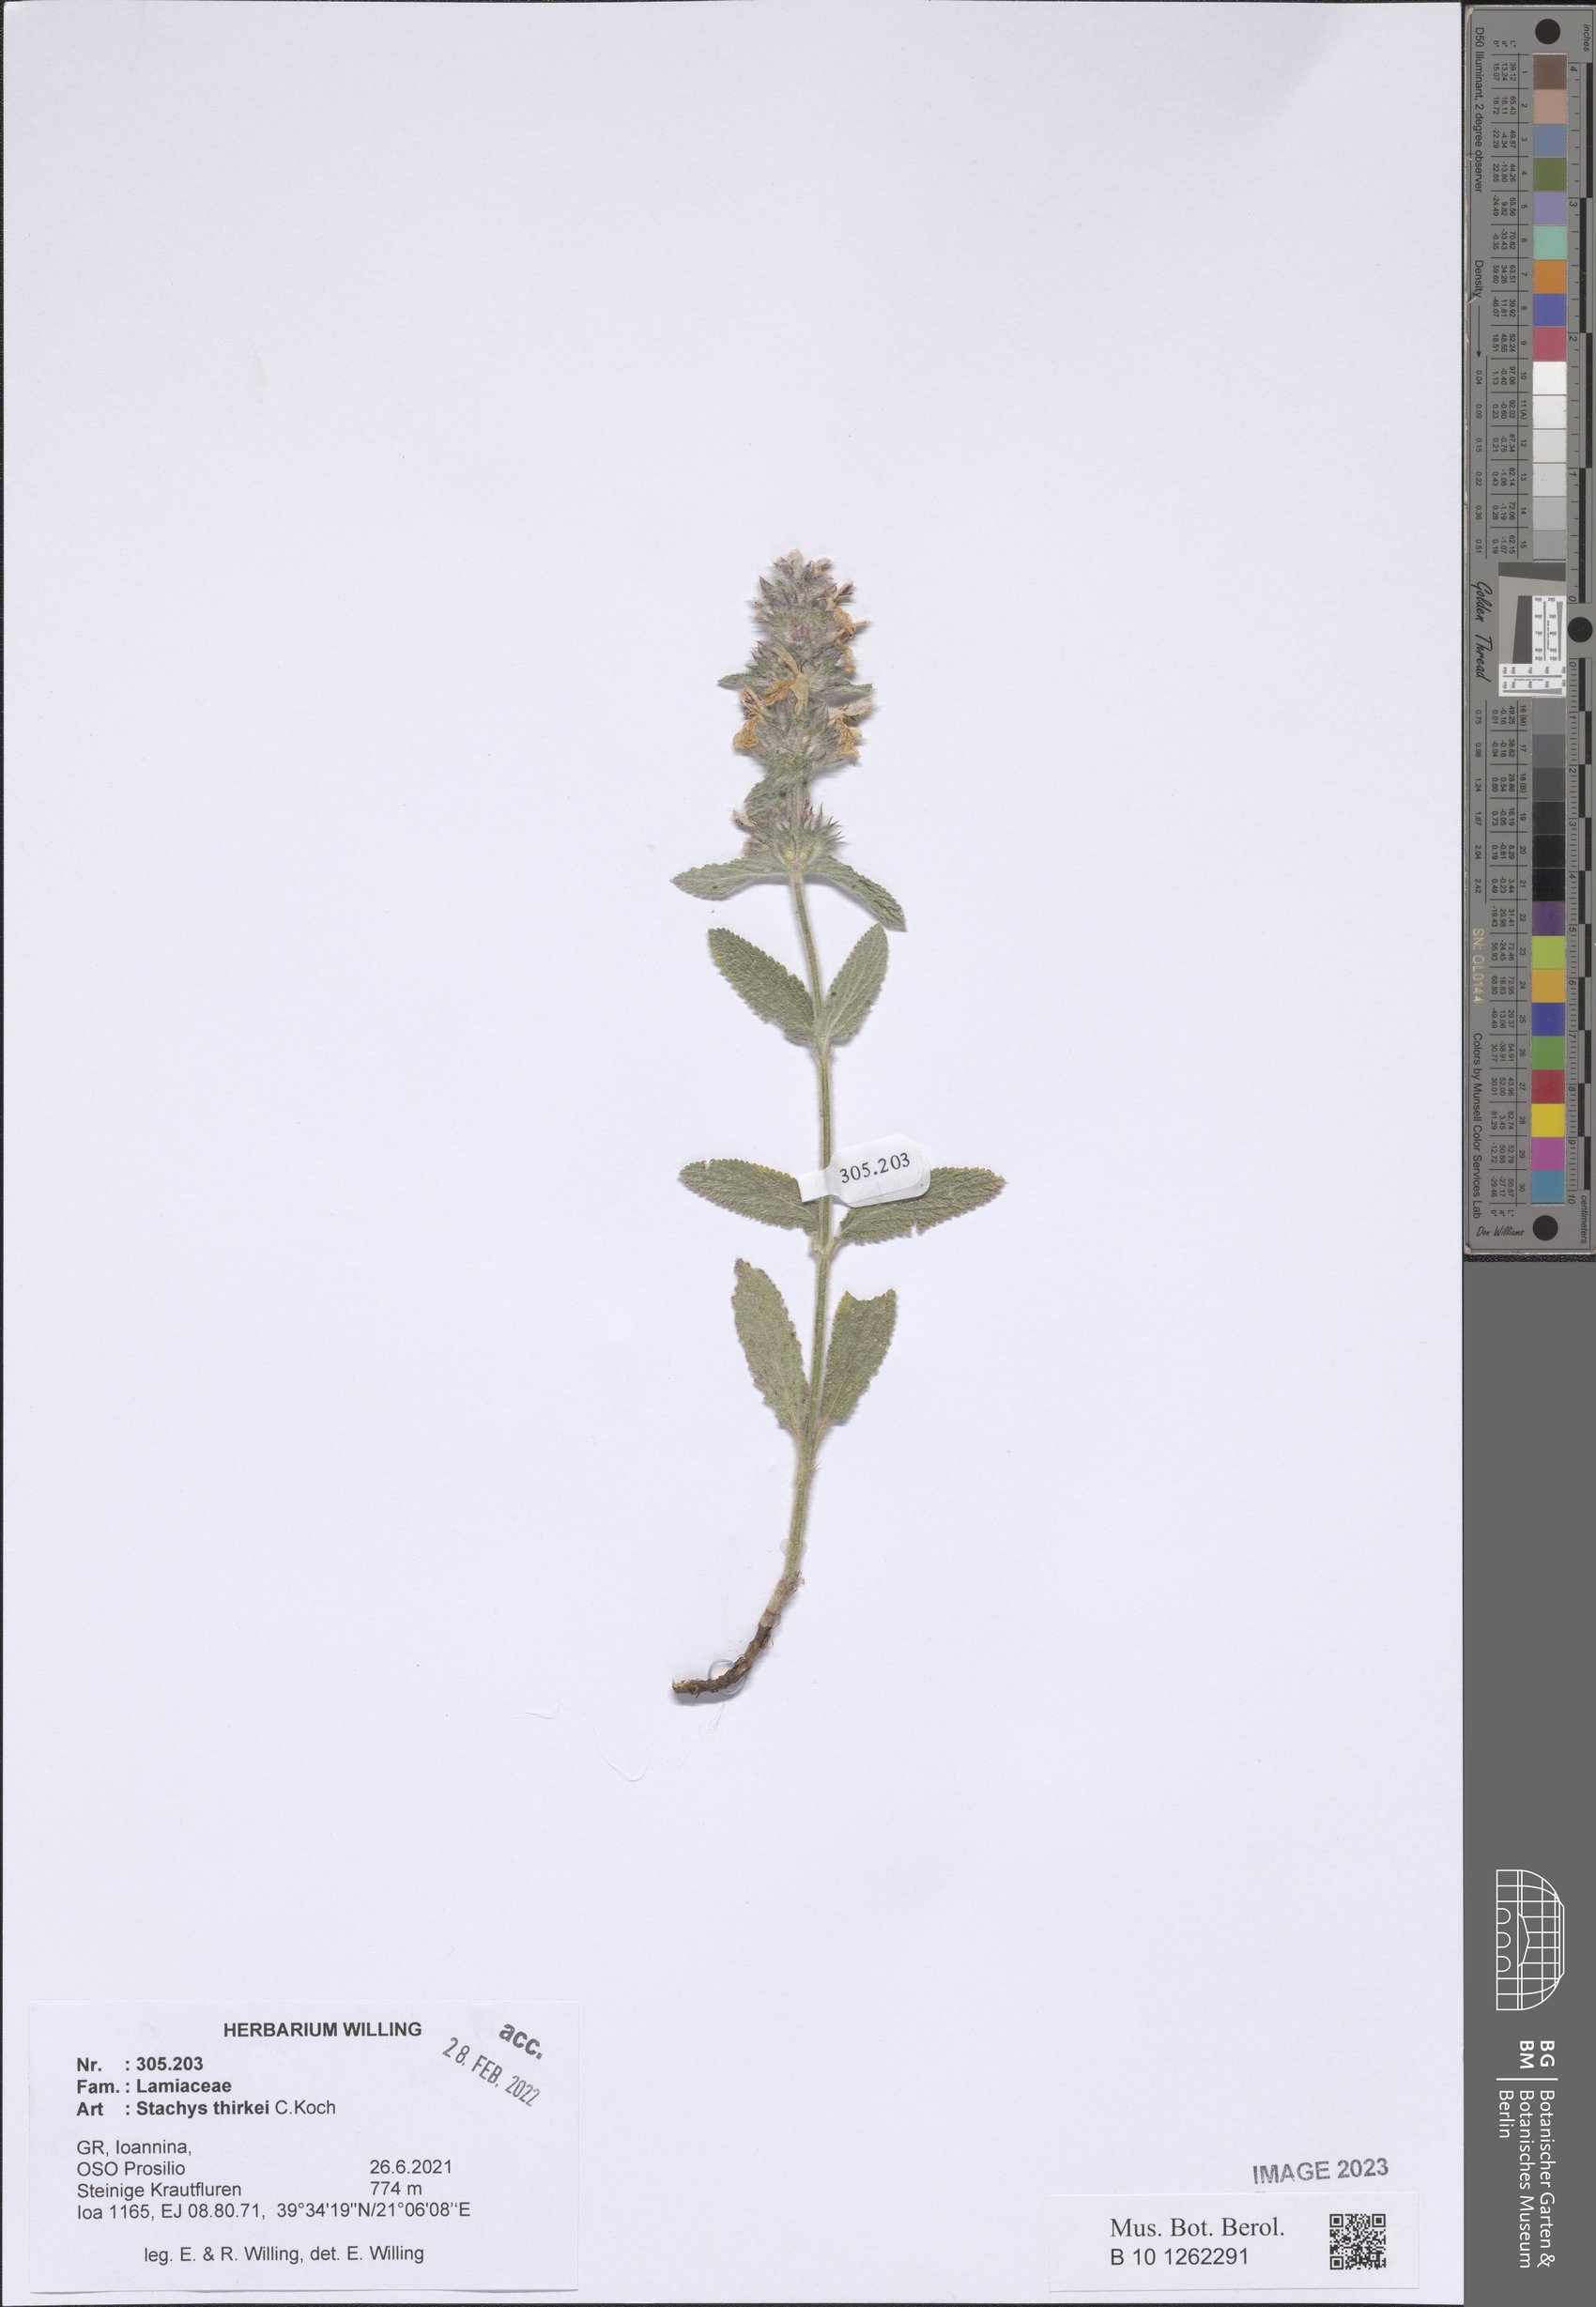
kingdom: Plantae
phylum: Tracheophyta
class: Magnoliopsida
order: Lamiales
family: Lamiaceae
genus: Stachys
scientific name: Stachys thirkei
